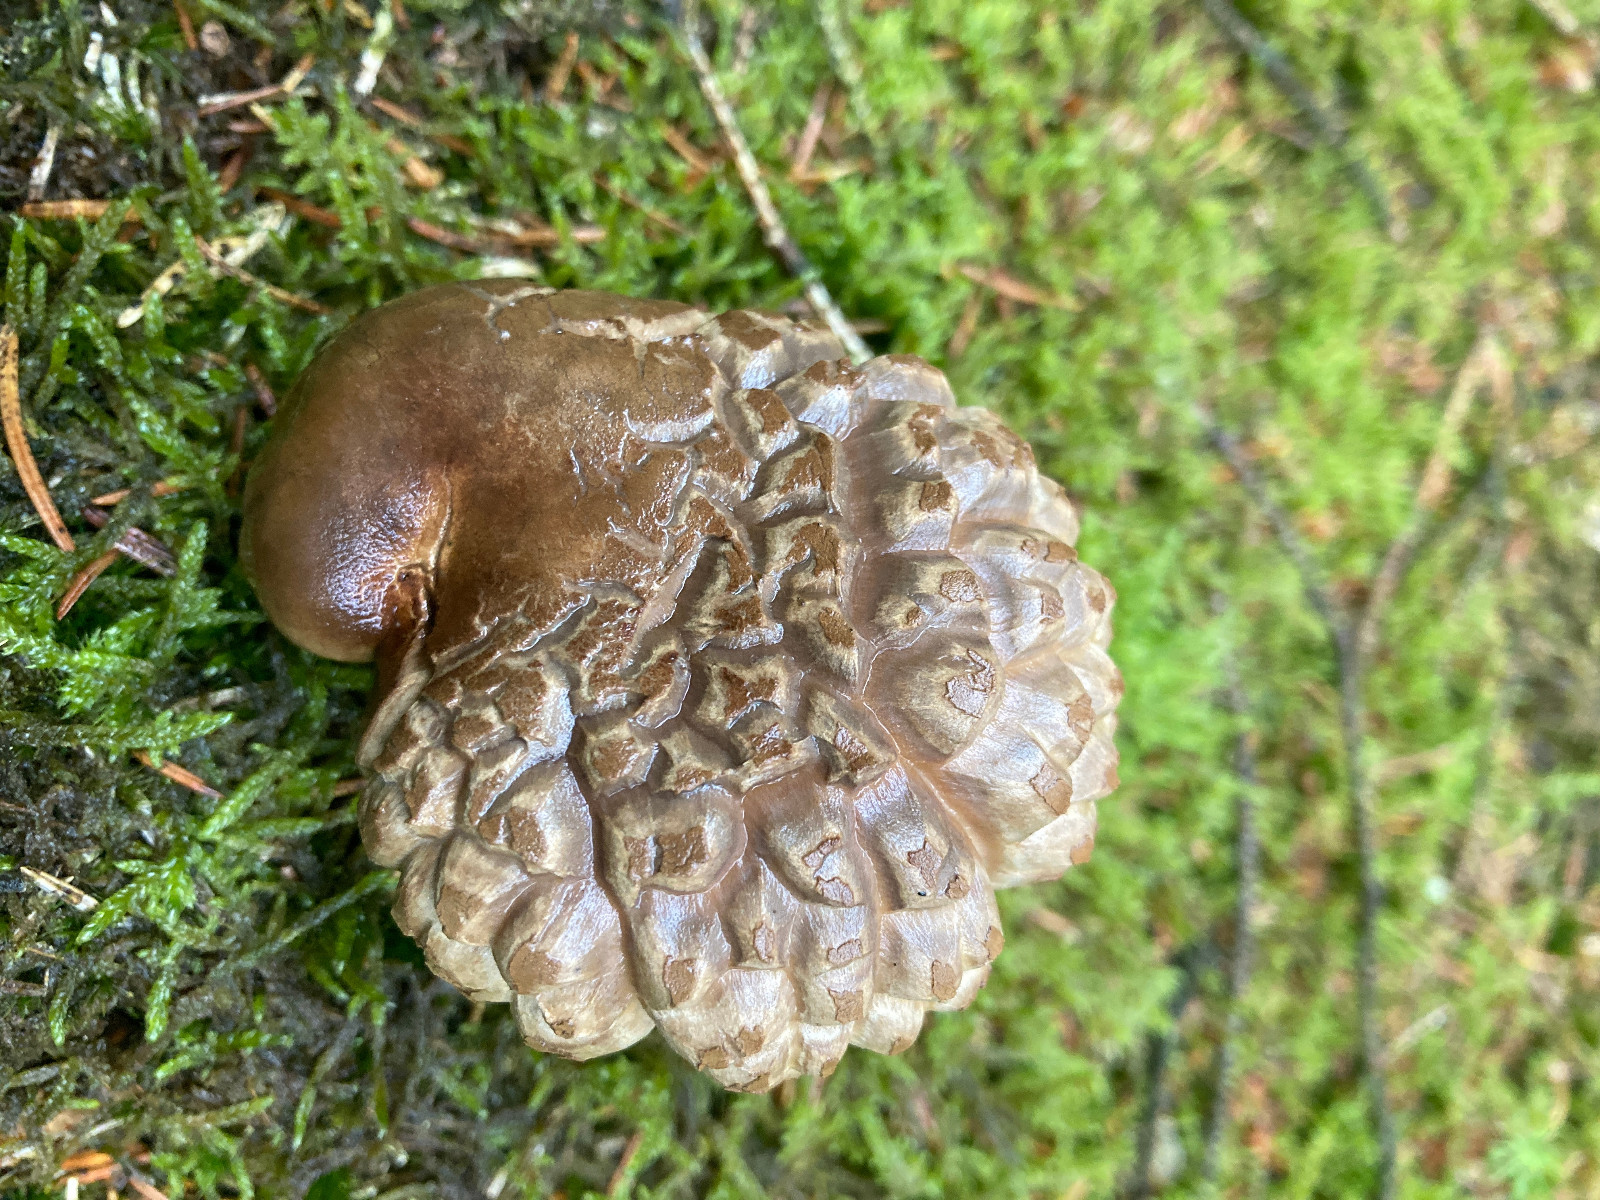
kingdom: Fungi
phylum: Basidiomycota
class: Agaricomycetes
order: Boletales
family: Tapinellaceae
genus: Tapinella
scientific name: Tapinella atrotomentosa
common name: sortfiltet viftesvamp
